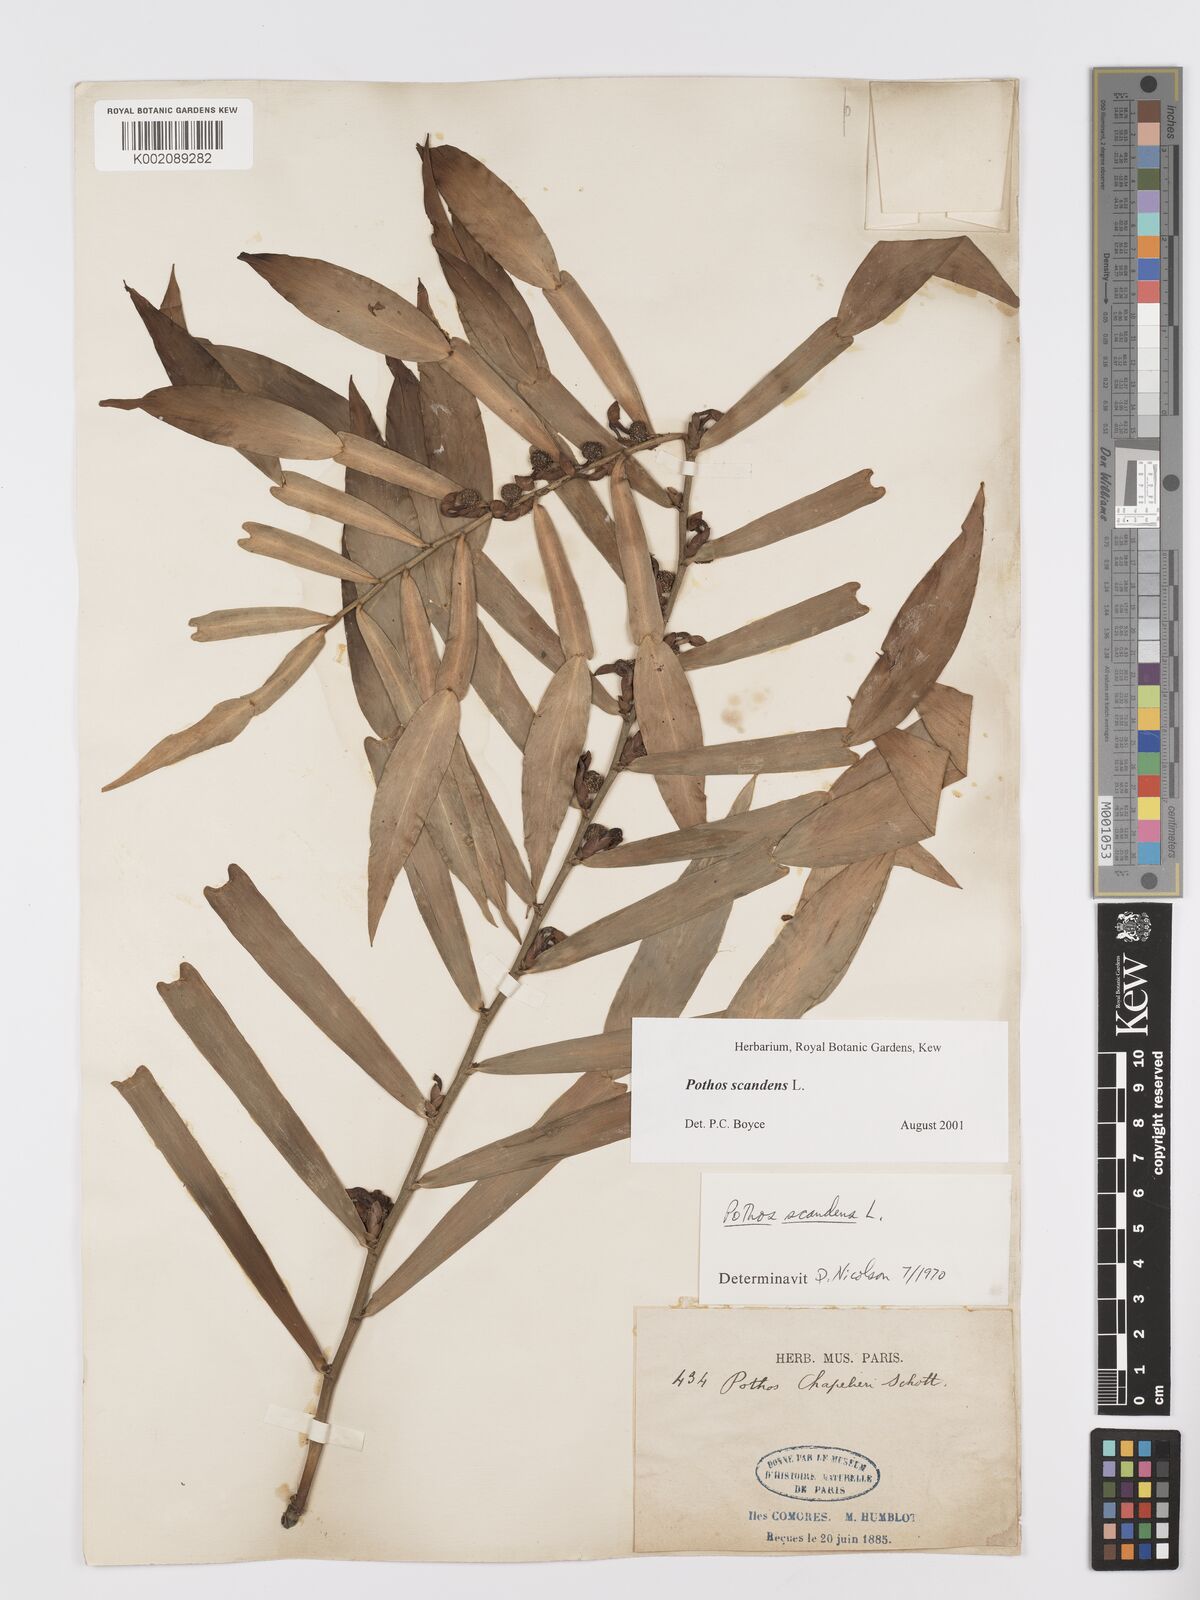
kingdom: Plantae
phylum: Tracheophyta
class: Liliopsida
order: Alismatales
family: Araceae
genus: Pothos
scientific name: Pothos scandens
